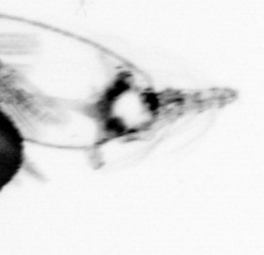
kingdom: Animalia
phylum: Arthropoda
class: Copepoda
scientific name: Copepoda
